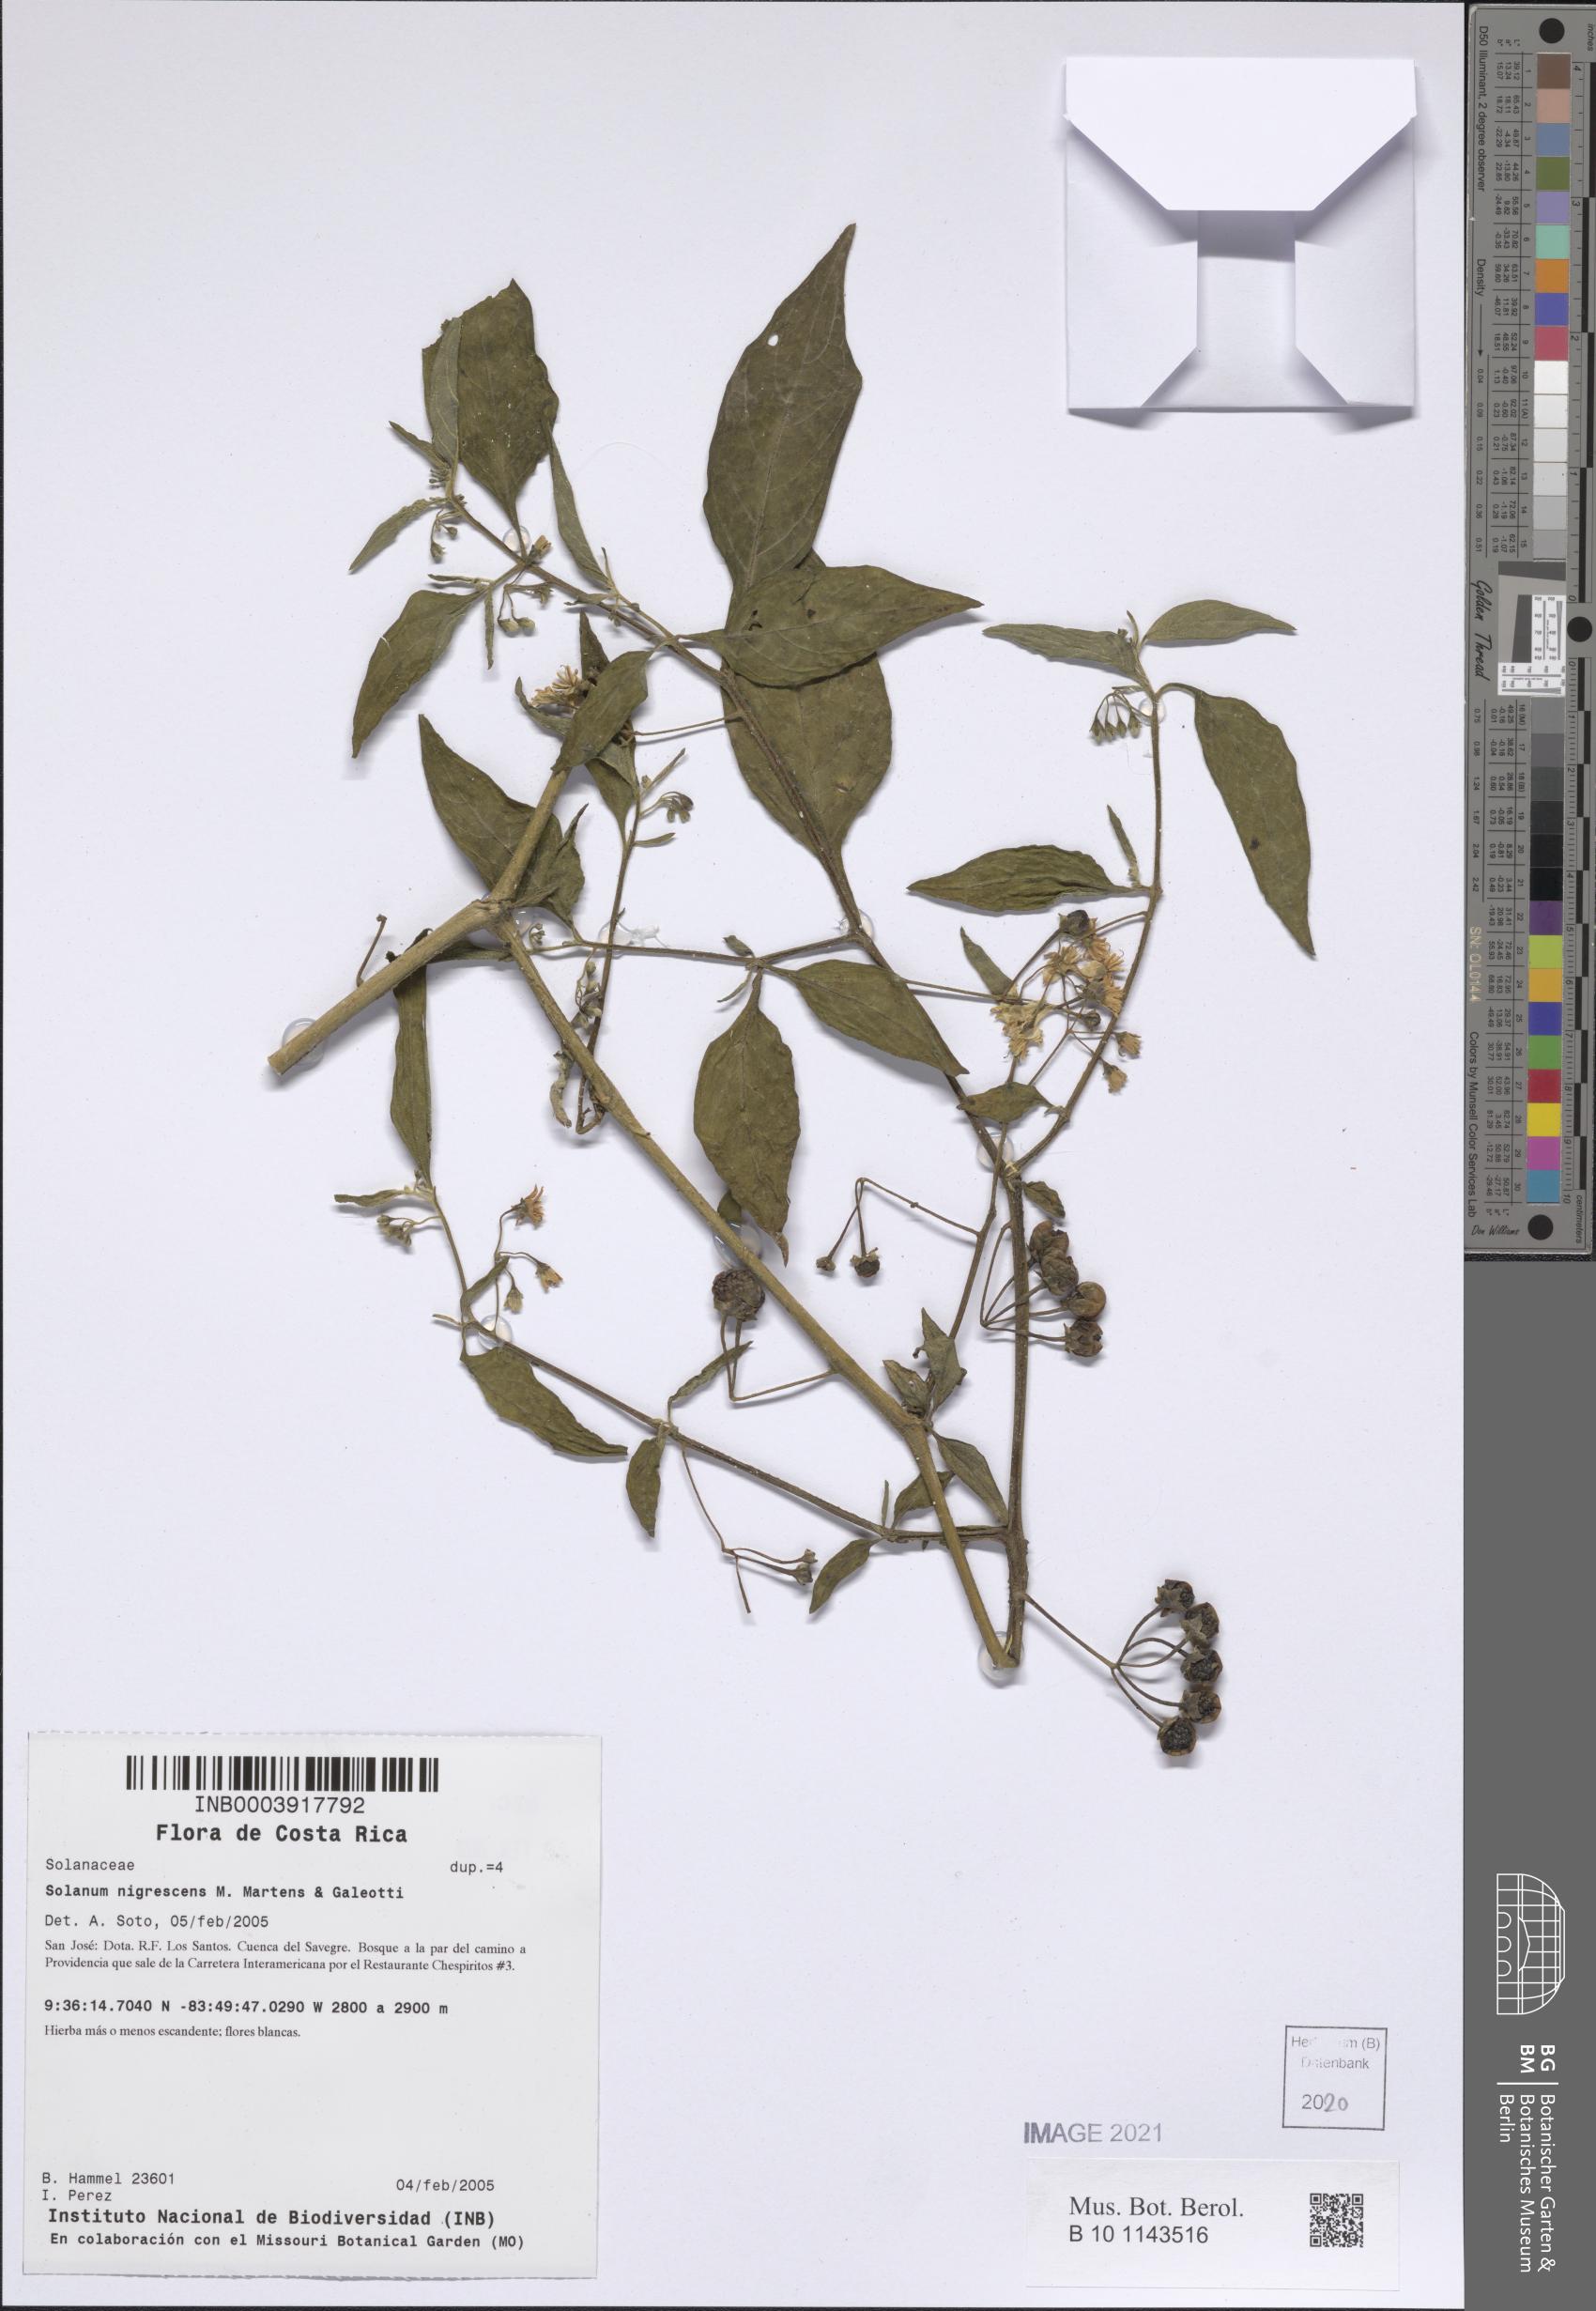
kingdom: Plantae
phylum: Tracheophyta
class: Magnoliopsida
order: Solanales
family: Solanaceae
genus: Solanum
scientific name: Solanum nigrescens
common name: Divine nightshade
